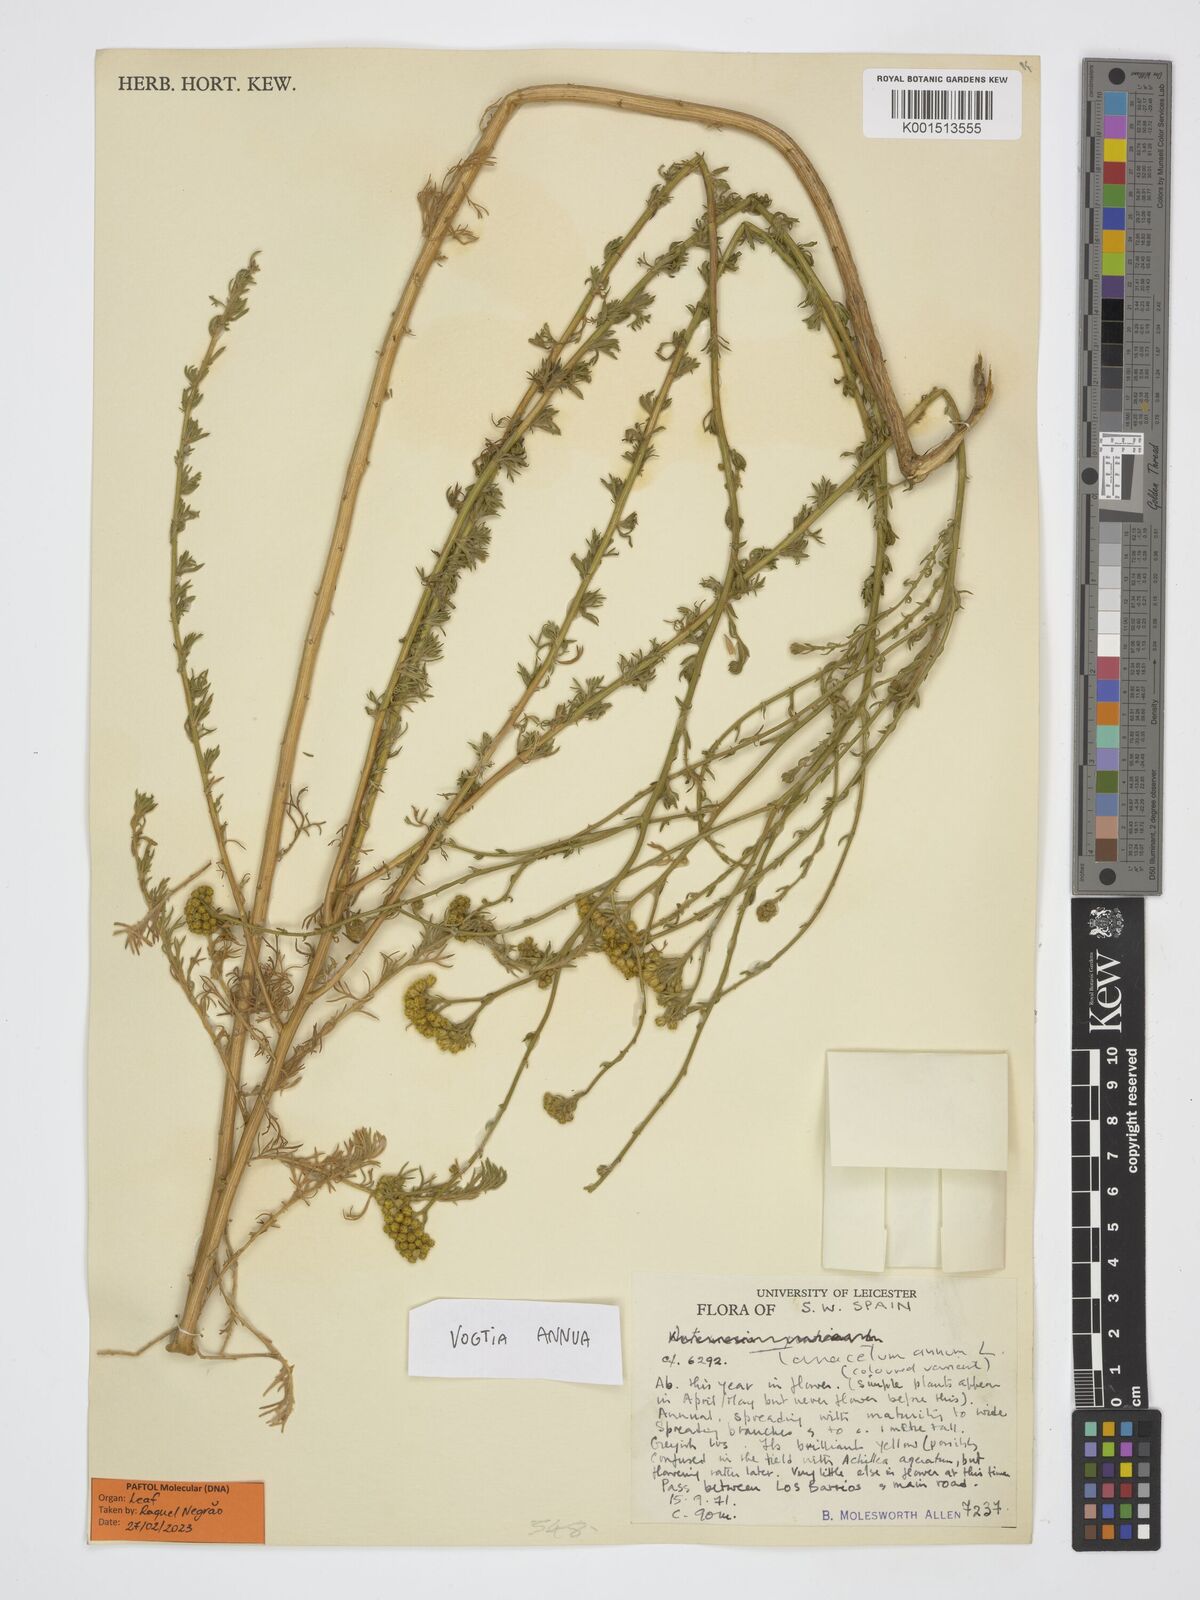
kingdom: Plantae
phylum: Tracheophyta
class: Magnoliopsida
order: Asterales
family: Asteraceae
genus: Vogtia
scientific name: Vogtia annua
